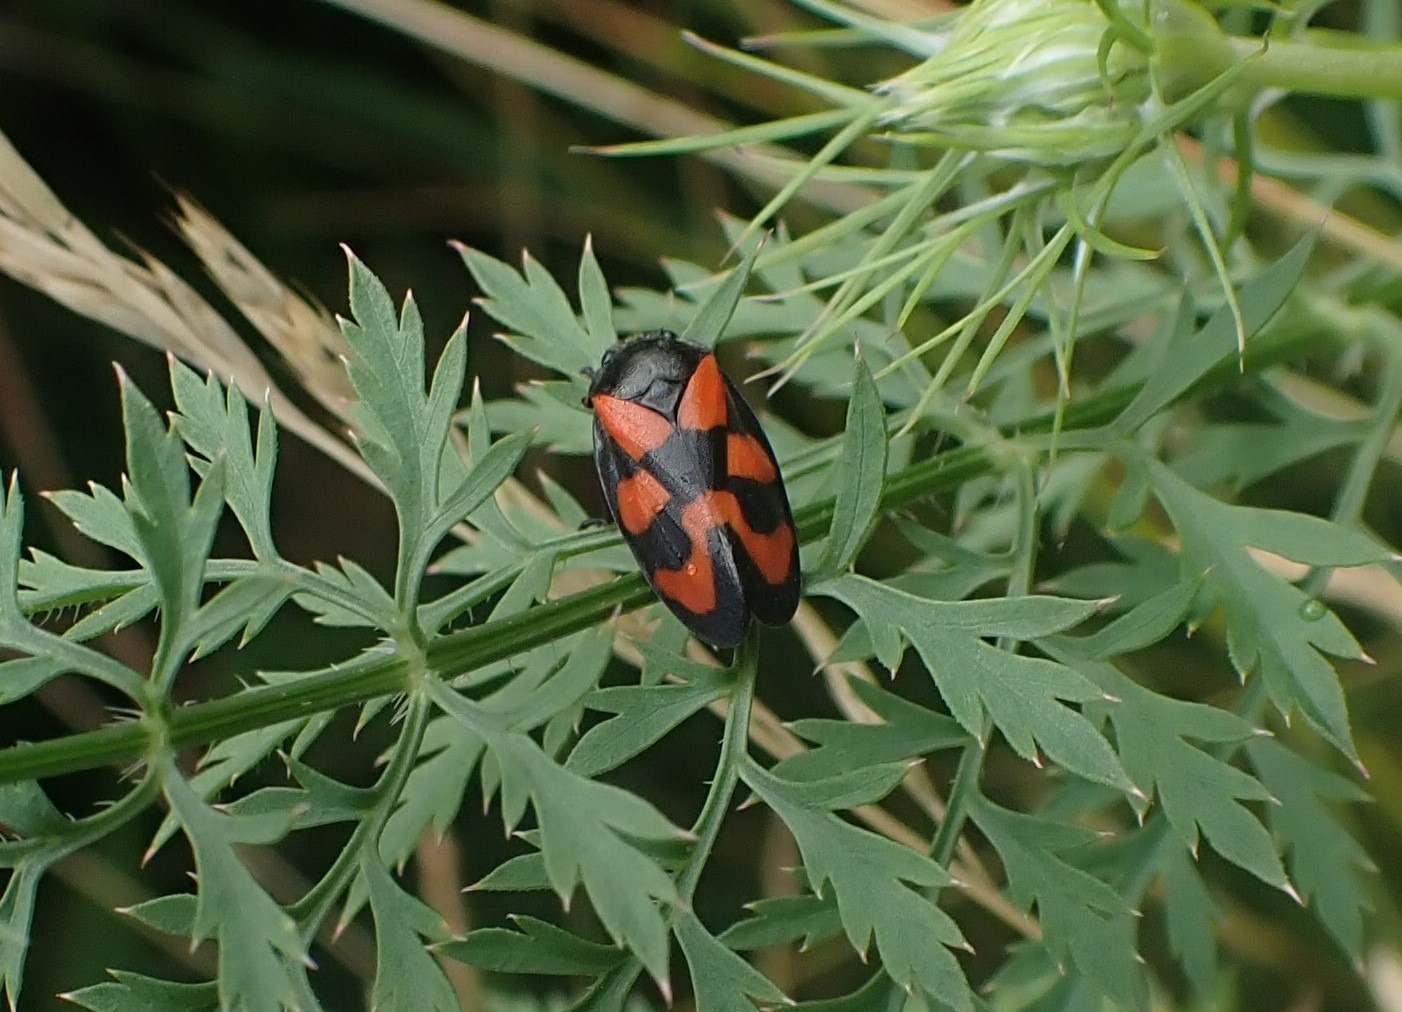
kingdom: Animalia
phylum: Arthropoda
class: Insecta
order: Hemiptera
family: Cercopidae
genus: Cercopis
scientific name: Cercopis vulnerata
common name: Blodcikade
